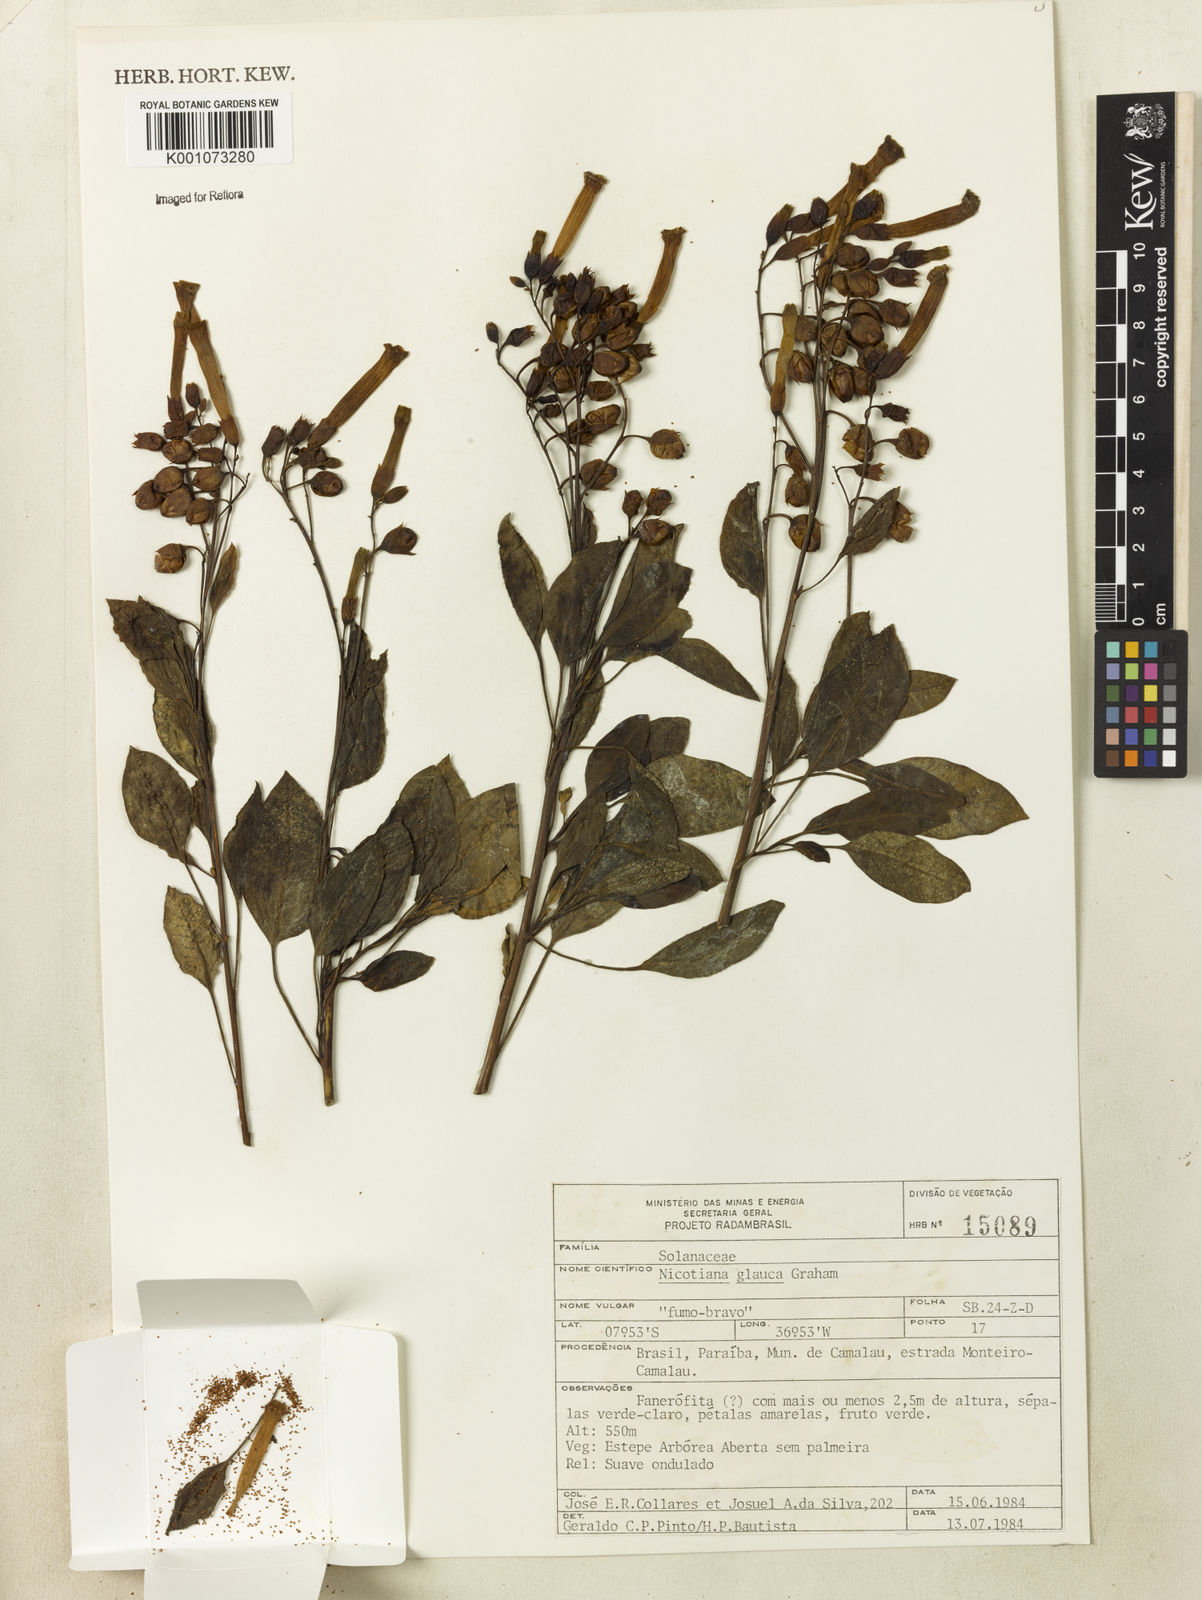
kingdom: Plantae
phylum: Tracheophyta
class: Magnoliopsida
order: Solanales
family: Solanaceae
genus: Nicotiana
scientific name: Nicotiana glauca
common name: Tree tobacco
